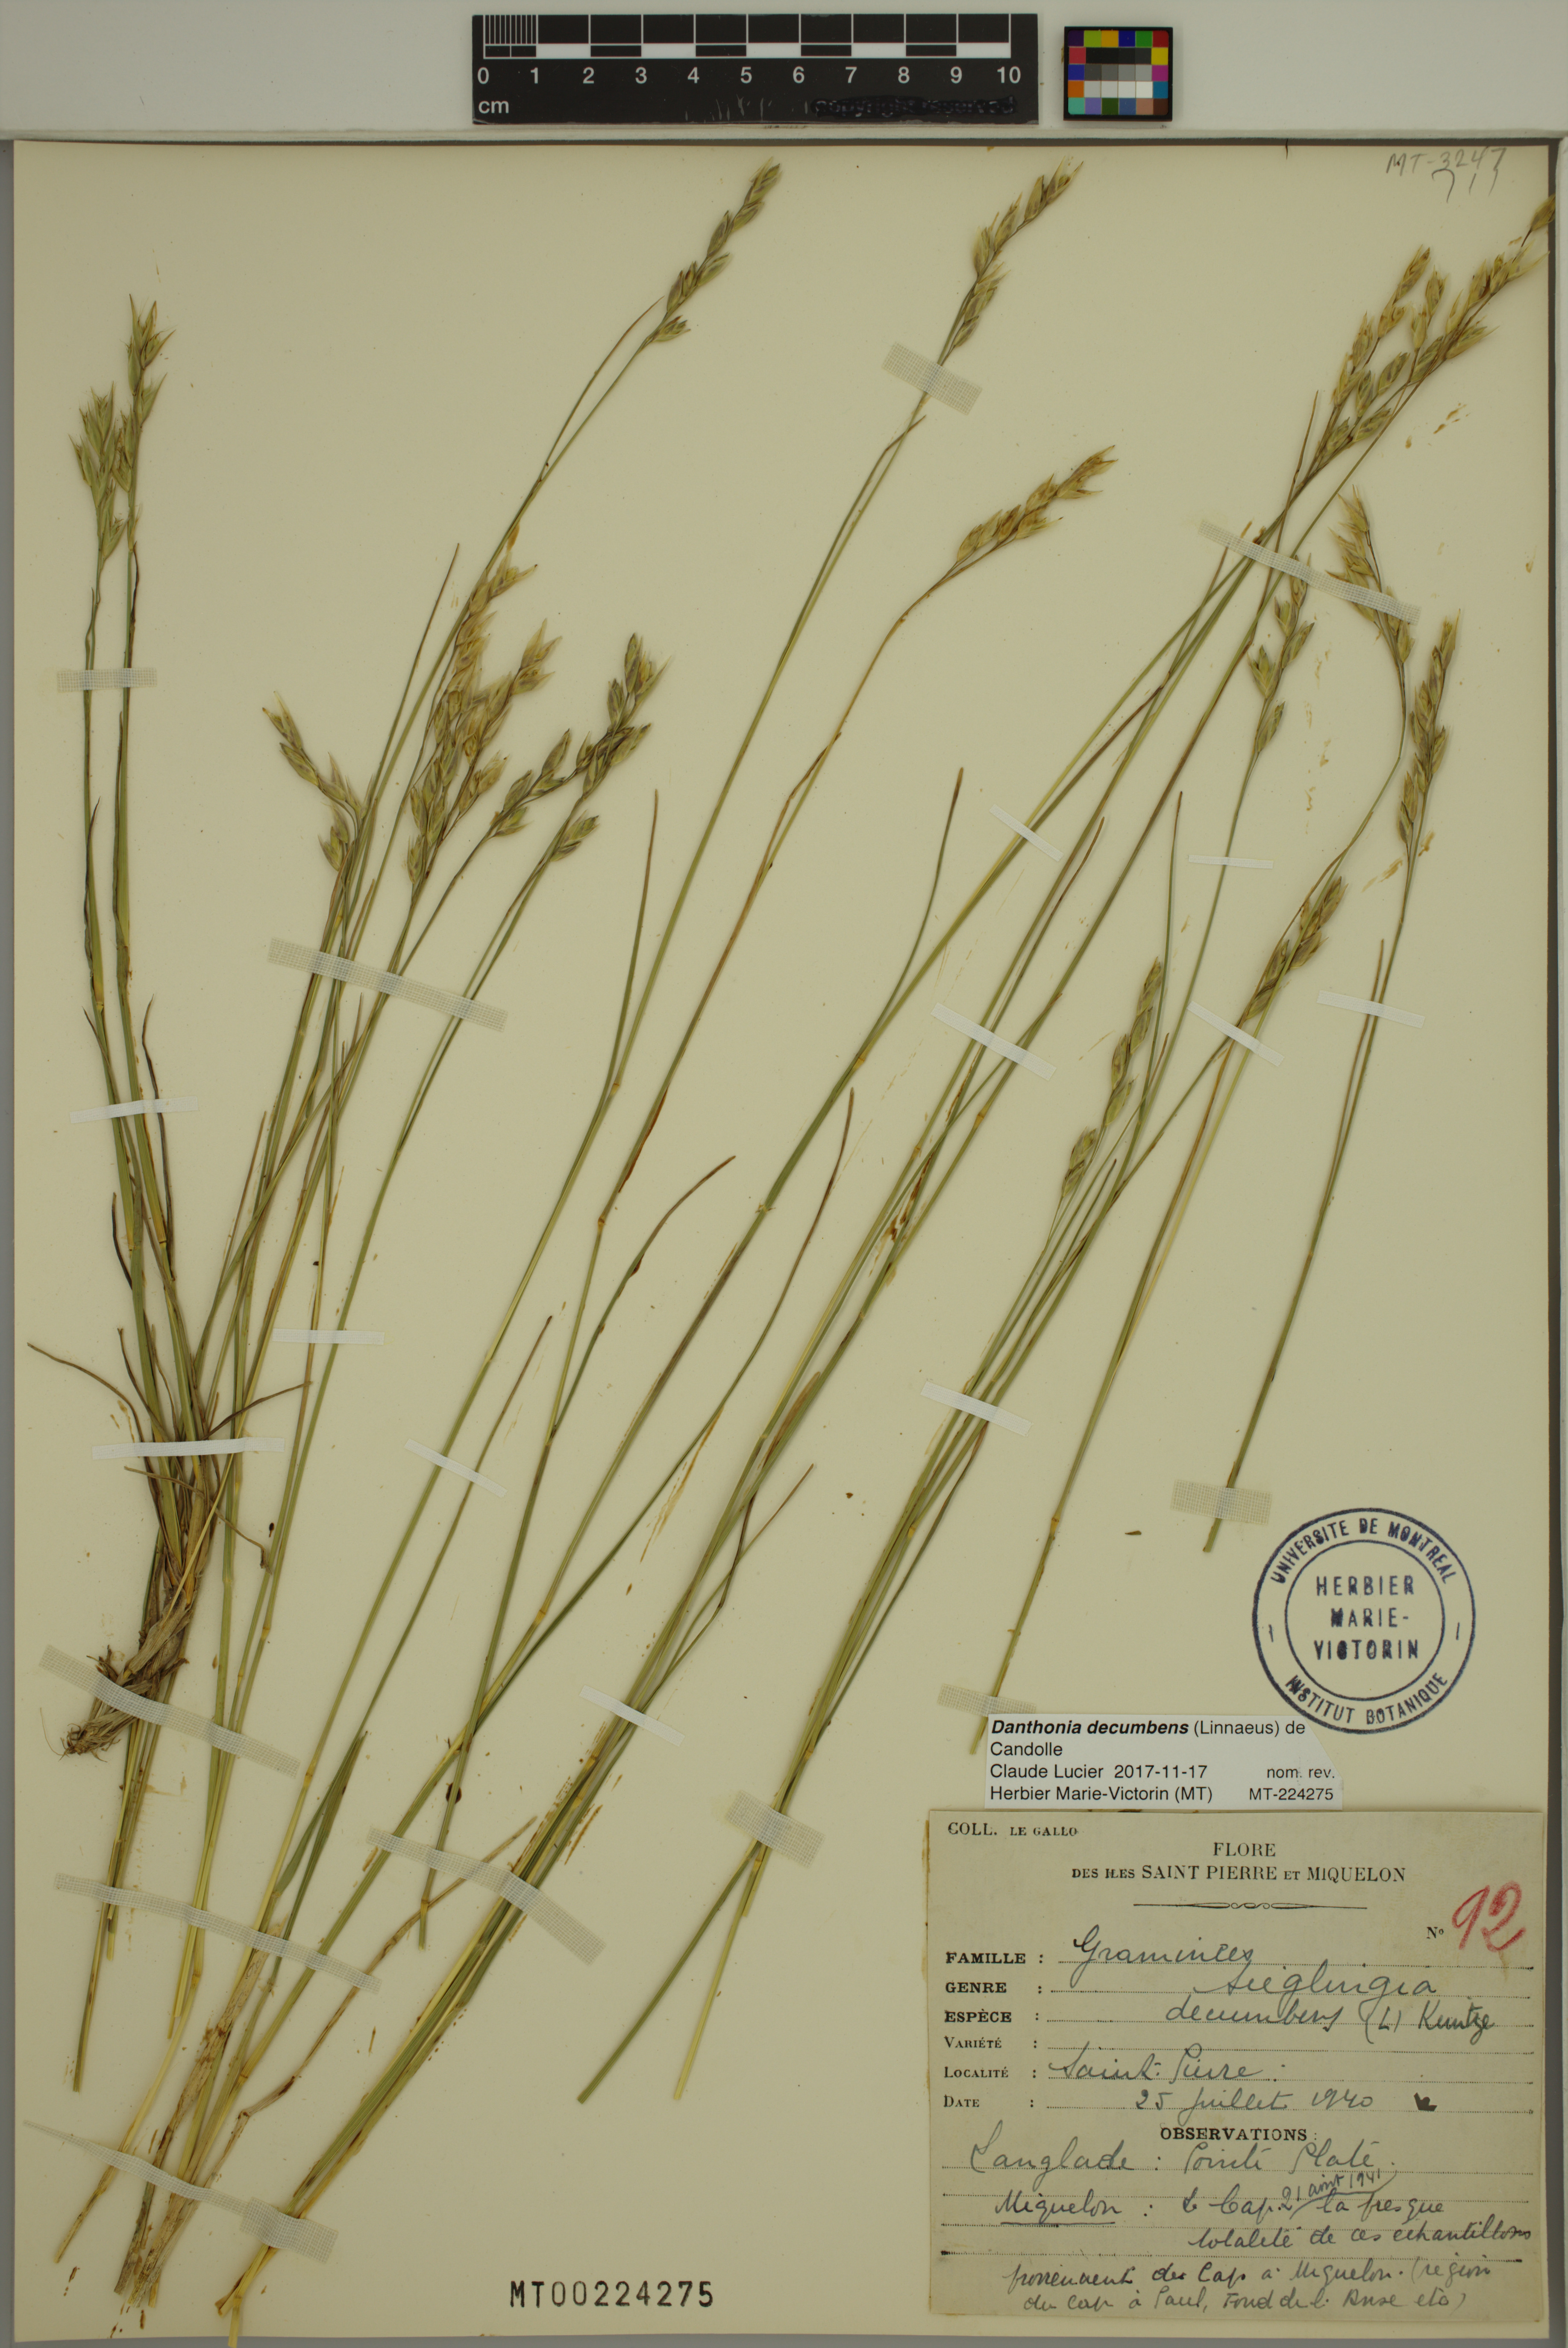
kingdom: Plantae
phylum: Tracheophyta
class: Liliopsida
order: Poales
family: Poaceae
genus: Danthonia
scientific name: Danthonia decumbens
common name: Common heathgrass
